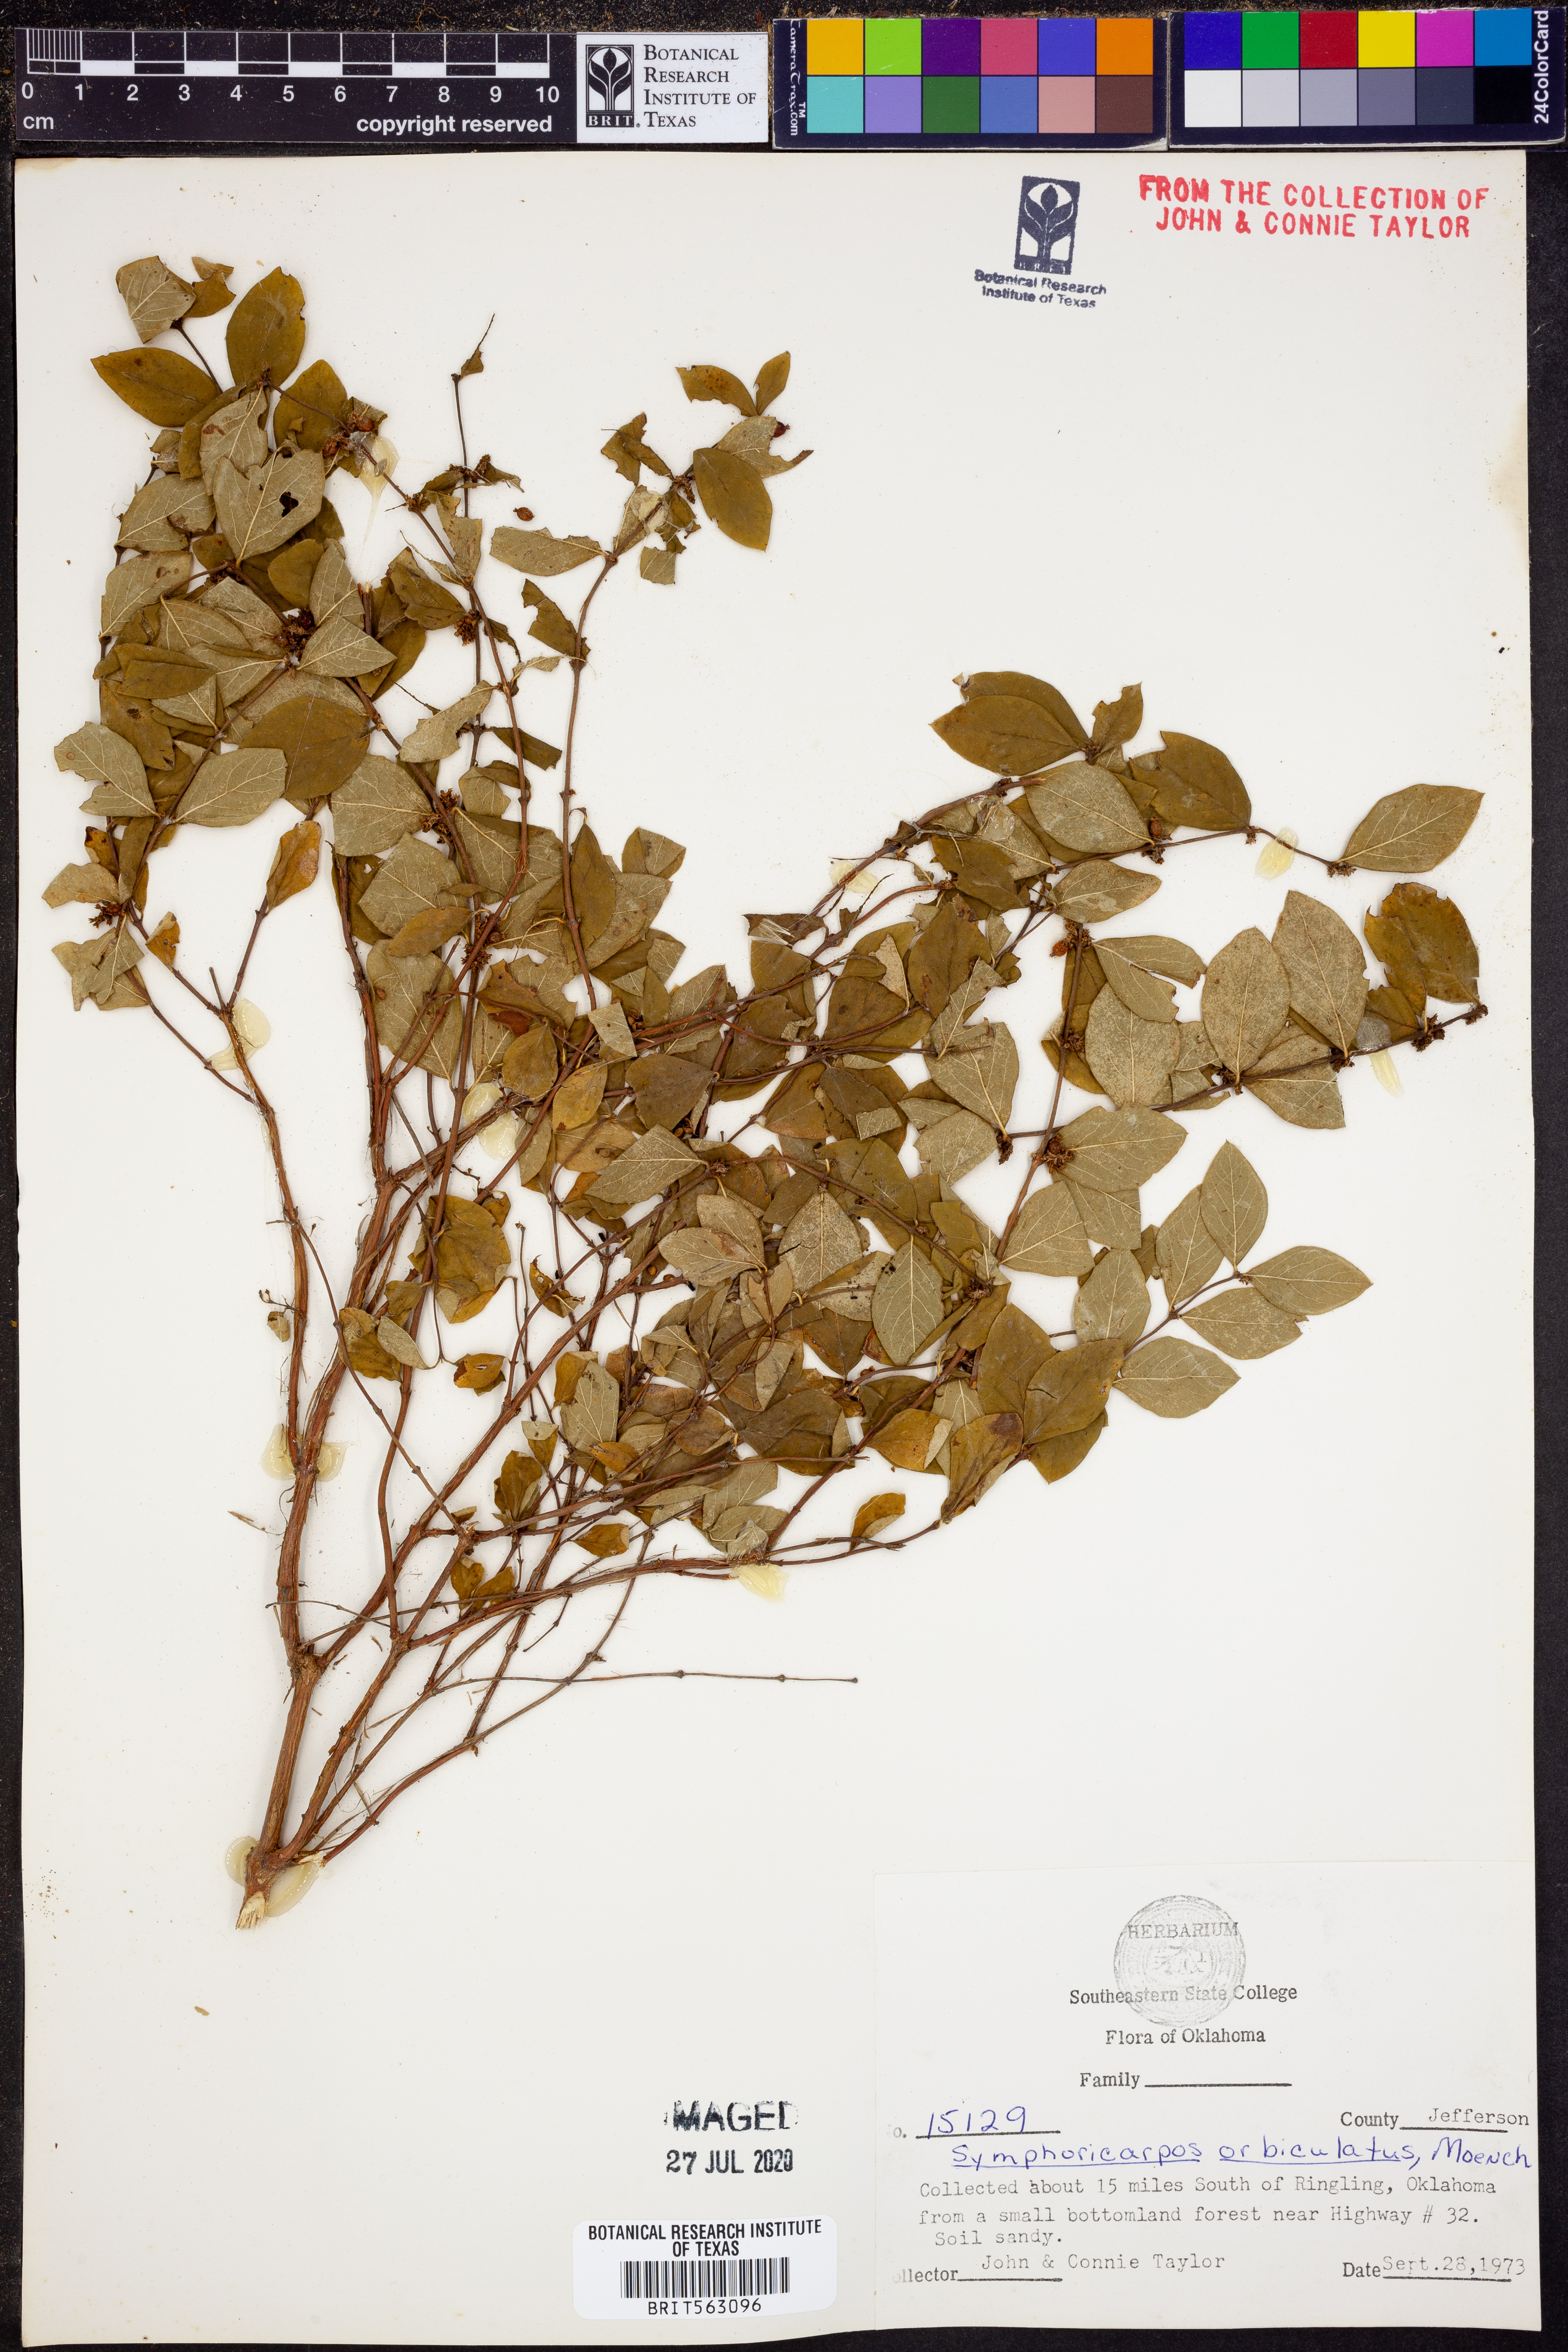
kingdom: Plantae
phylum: Tracheophyta
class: Magnoliopsida
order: Dipsacales
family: Caprifoliaceae
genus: Symphoricarpos
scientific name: Symphoricarpos orbiculatus
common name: Coralberry
